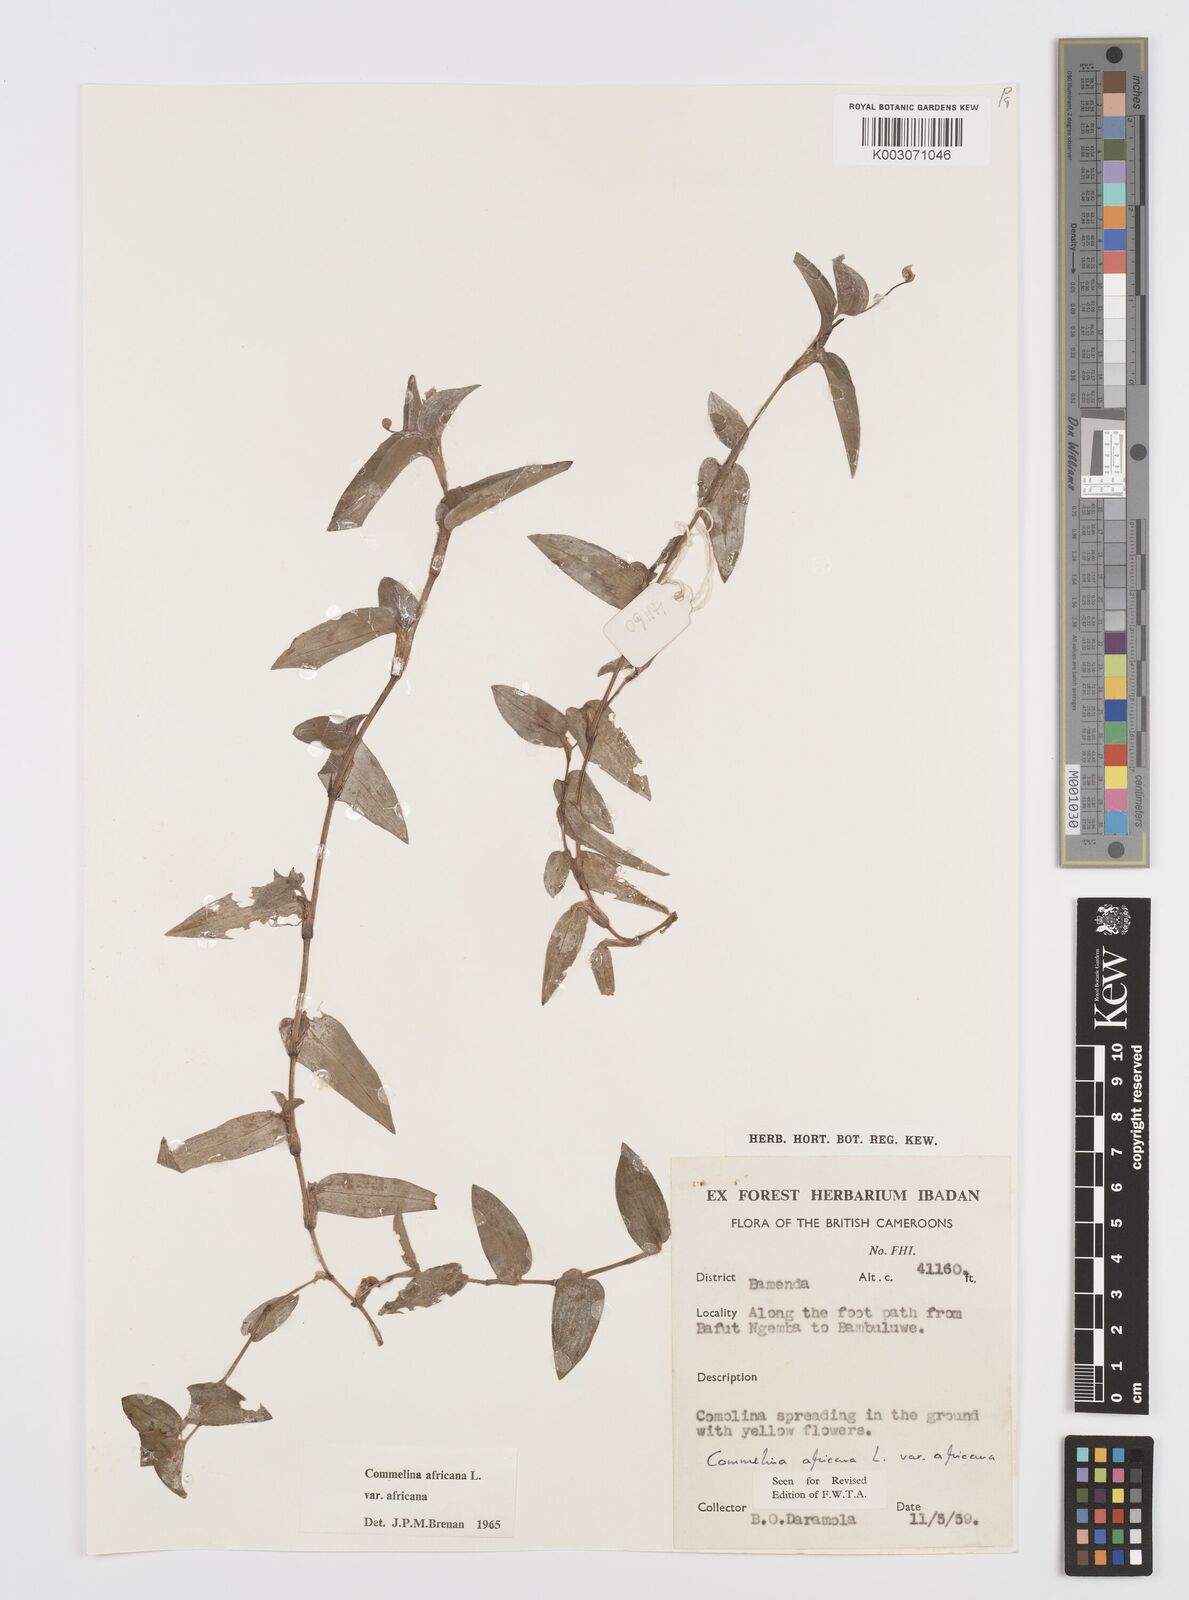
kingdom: Plantae
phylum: Tracheophyta
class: Liliopsida
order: Commelinales
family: Commelinaceae
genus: Commelina
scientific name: Commelina africana
